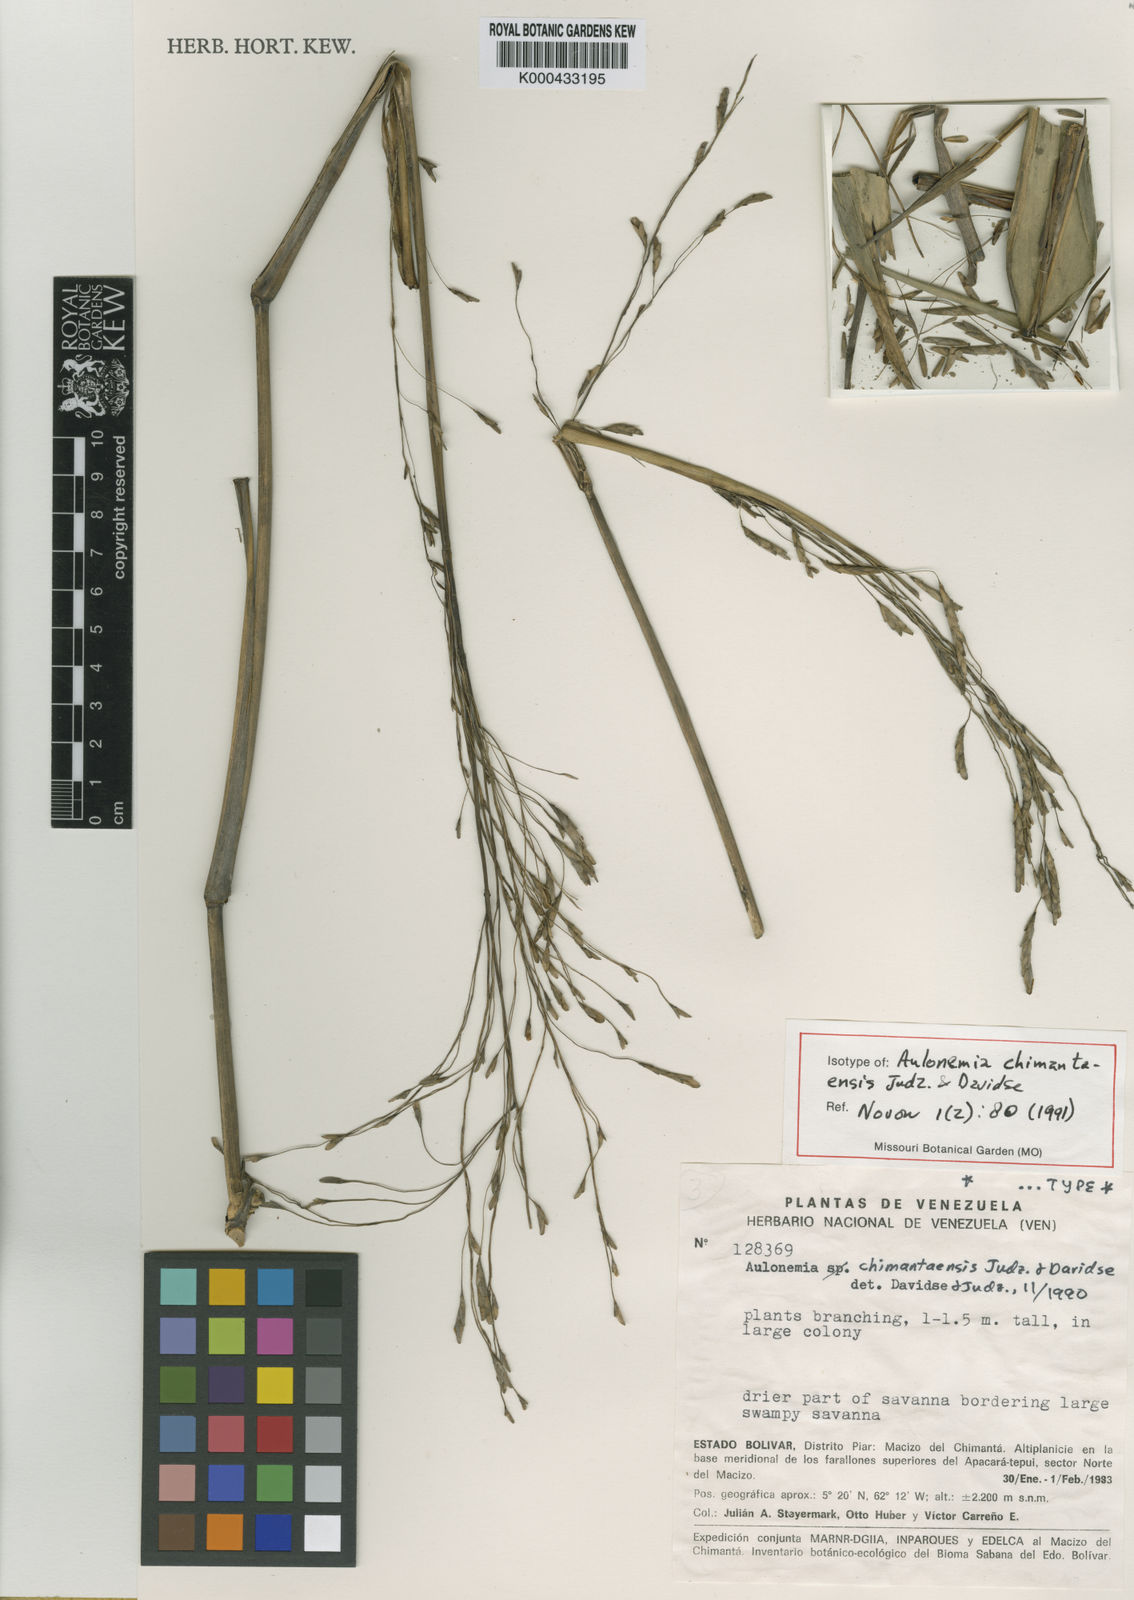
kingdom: Plantae
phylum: Tracheophyta
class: Liliopsida
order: Poales
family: Poaceae
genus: Aulonemia
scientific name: Aulonemia chimantaensis
